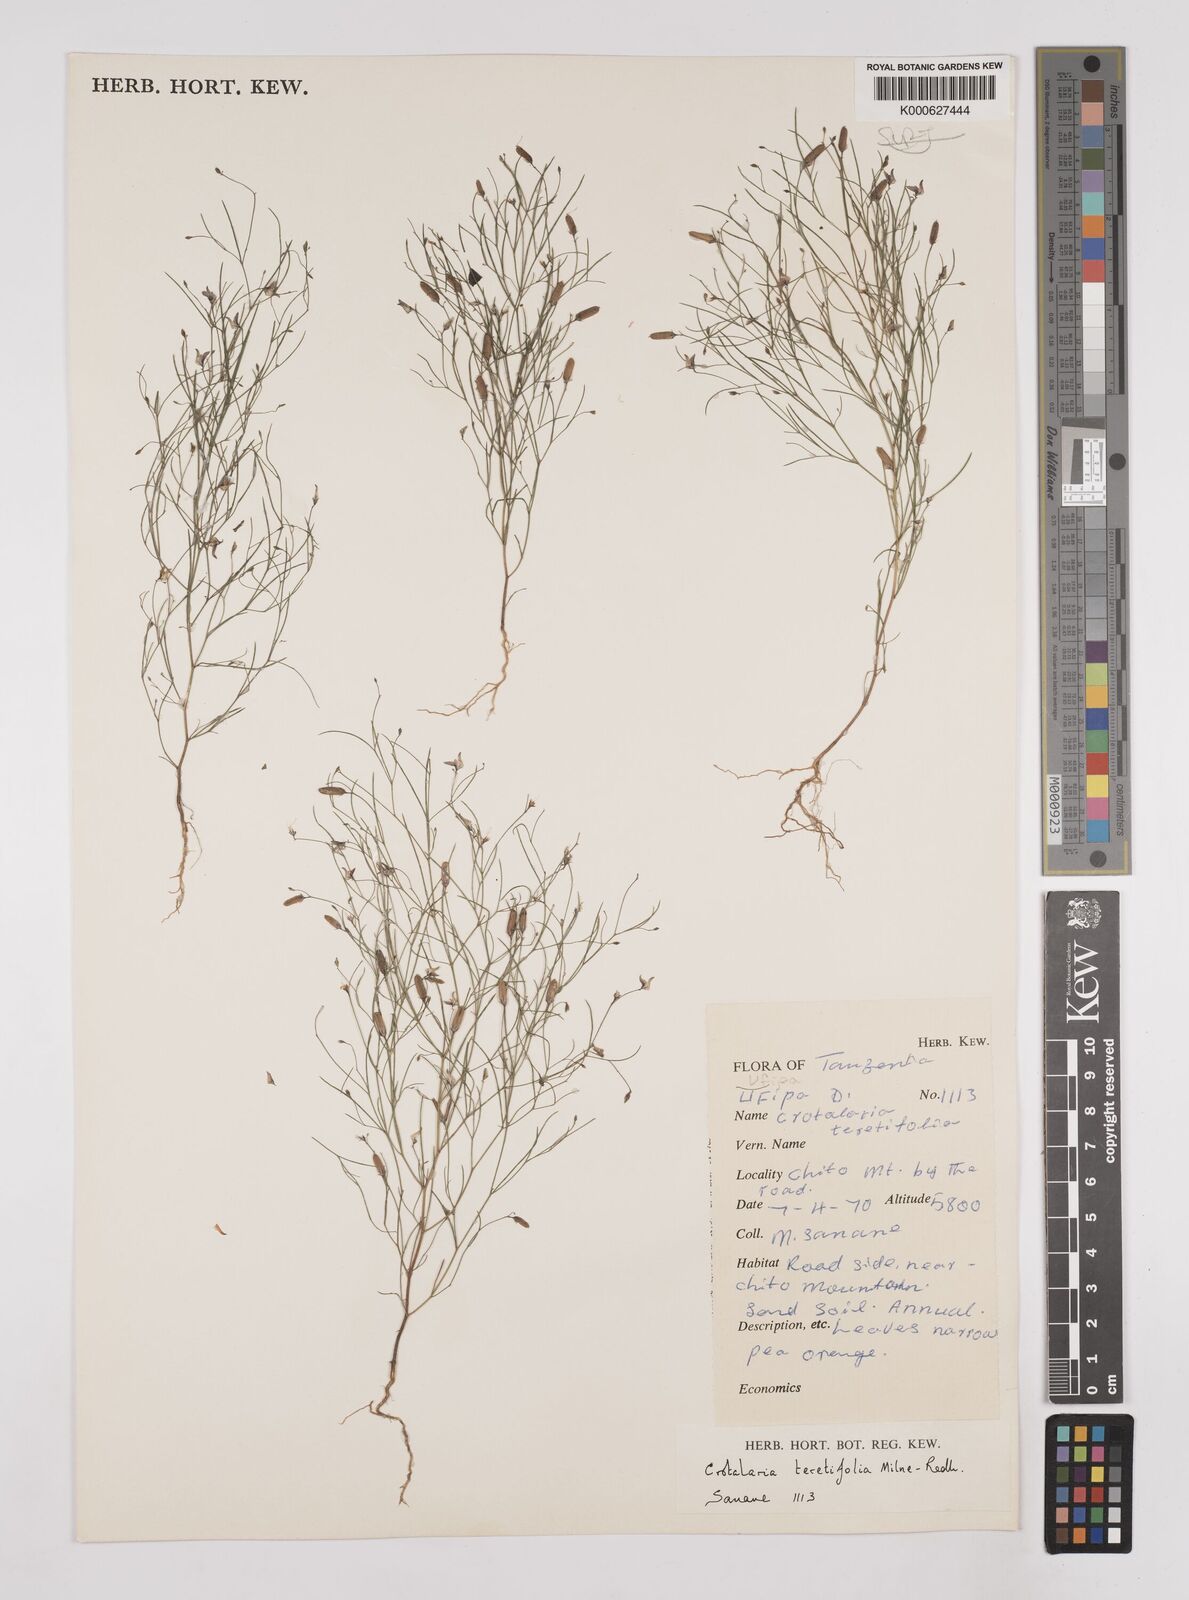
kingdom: Plantae
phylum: Tracheophyta
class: Magnoliopsida
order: Fabales
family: Fabaceae
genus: Crotalaria
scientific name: Crotalaria teretifolia
